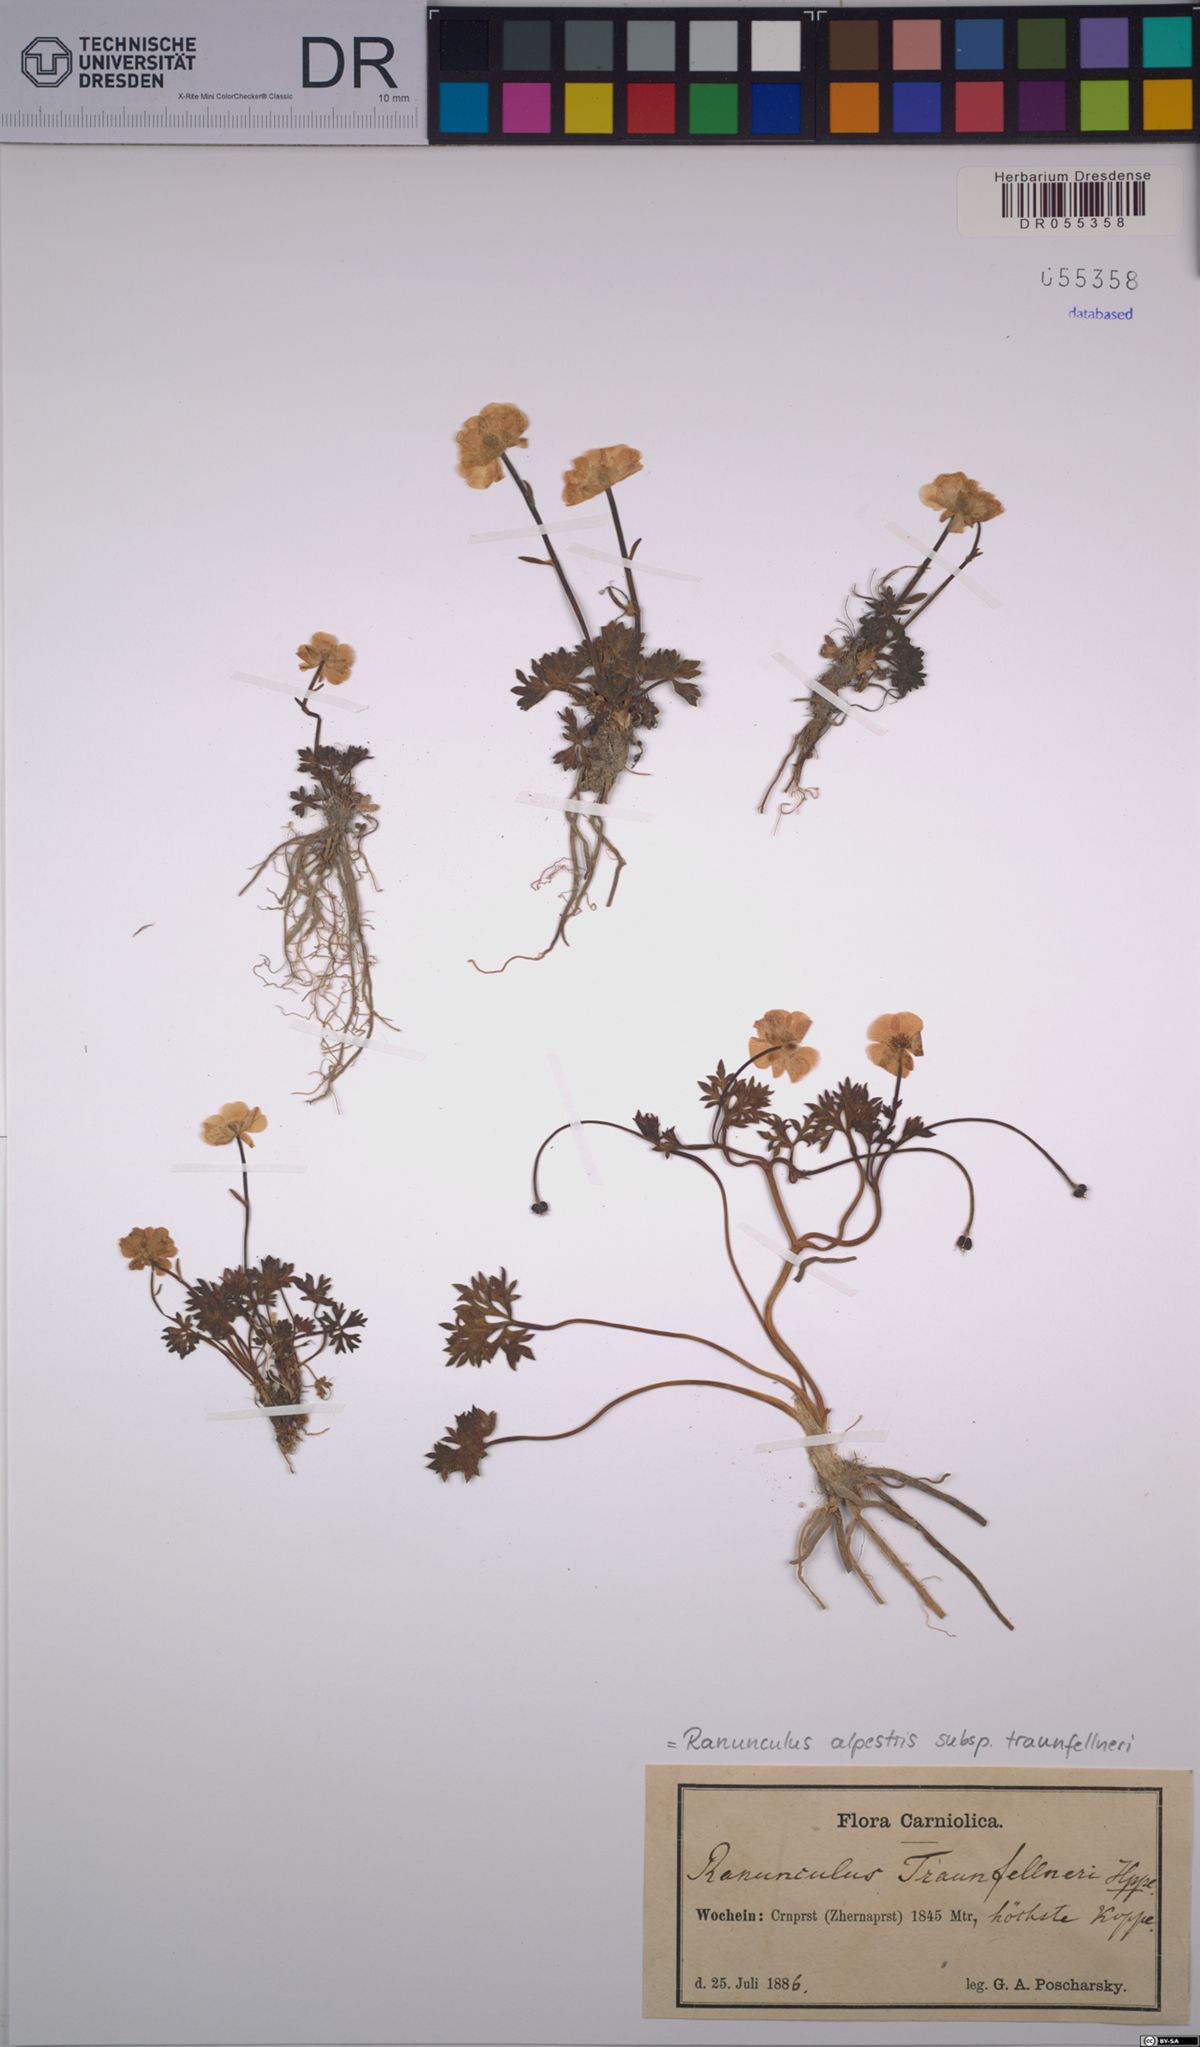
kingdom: Plantae
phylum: Tracheophyta
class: Magnoliopsida
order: Ranunculales
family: Ranunculaceae
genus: Ranunculus
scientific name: Ranunculus traunfellneri
